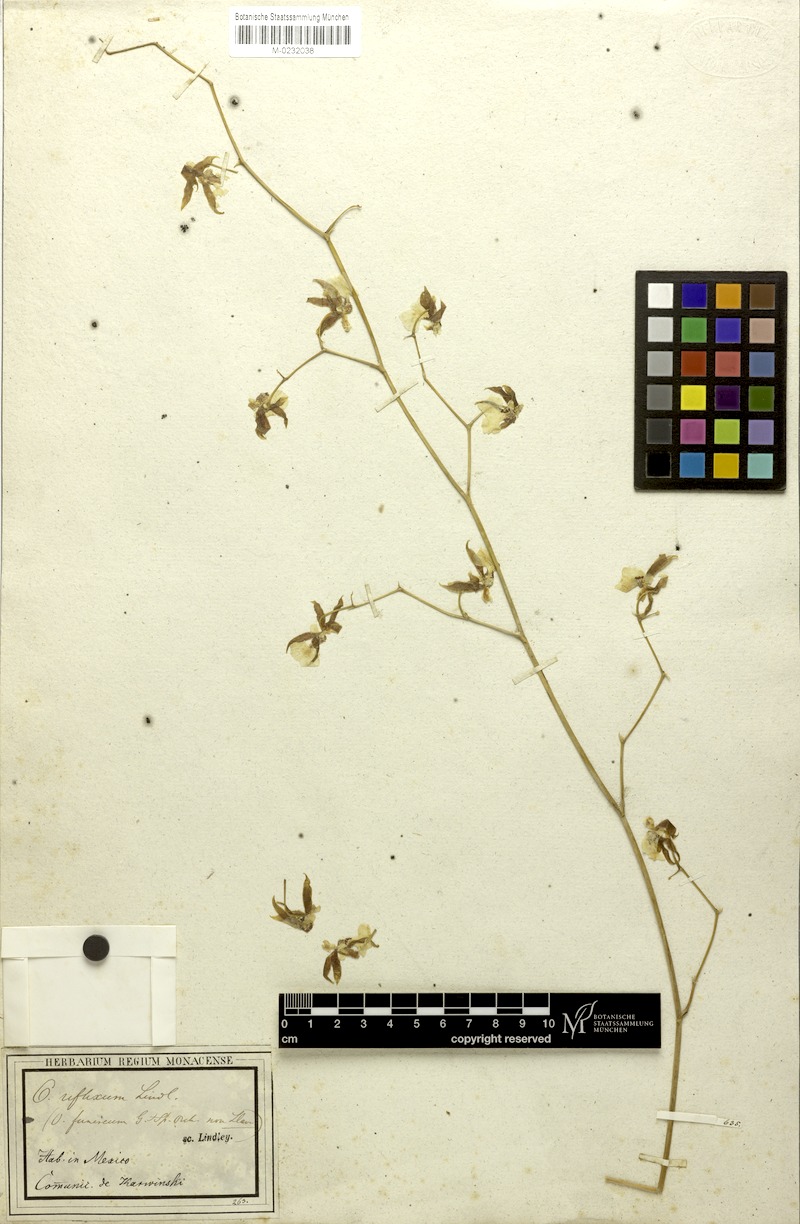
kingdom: Plantae
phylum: Tracheophyta
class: Liliopsida
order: Asparagales
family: Orchidaceae
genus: Oncidium
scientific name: Oncidium reflexum
